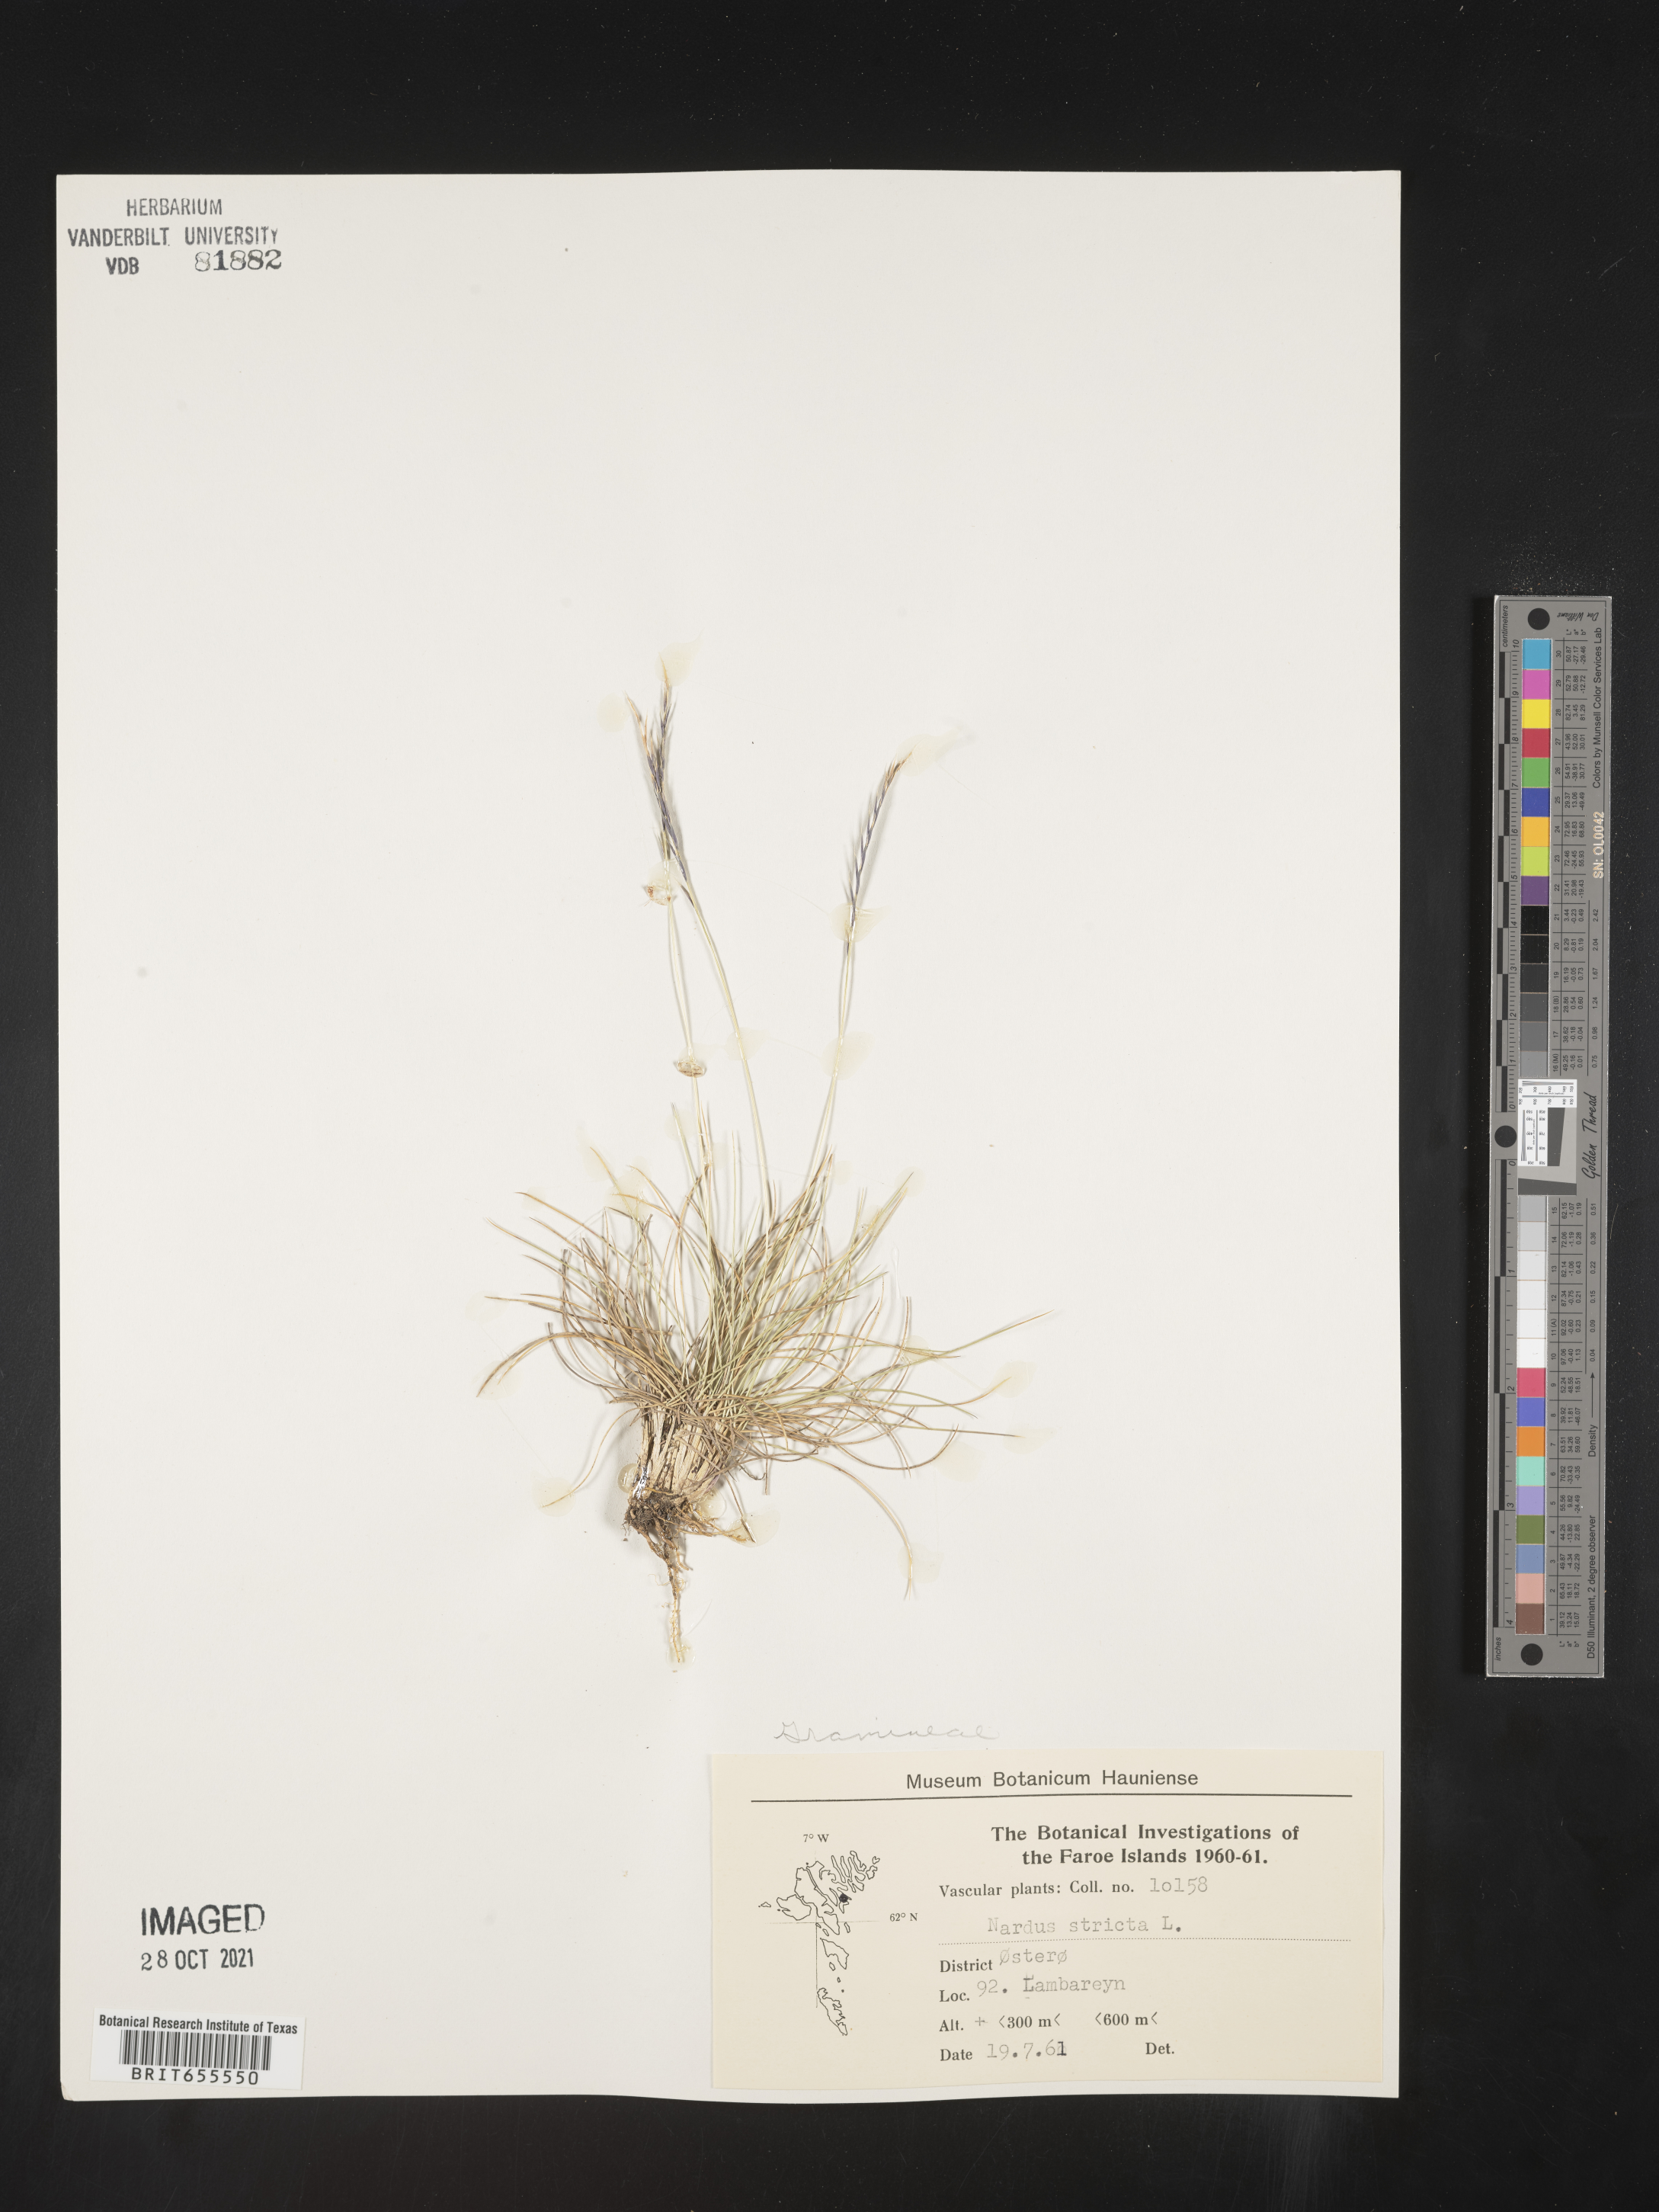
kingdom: Plantae
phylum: Tracheophyta
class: Liliopsida
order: Poales
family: Poaceae
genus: Nardus
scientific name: Nardus
